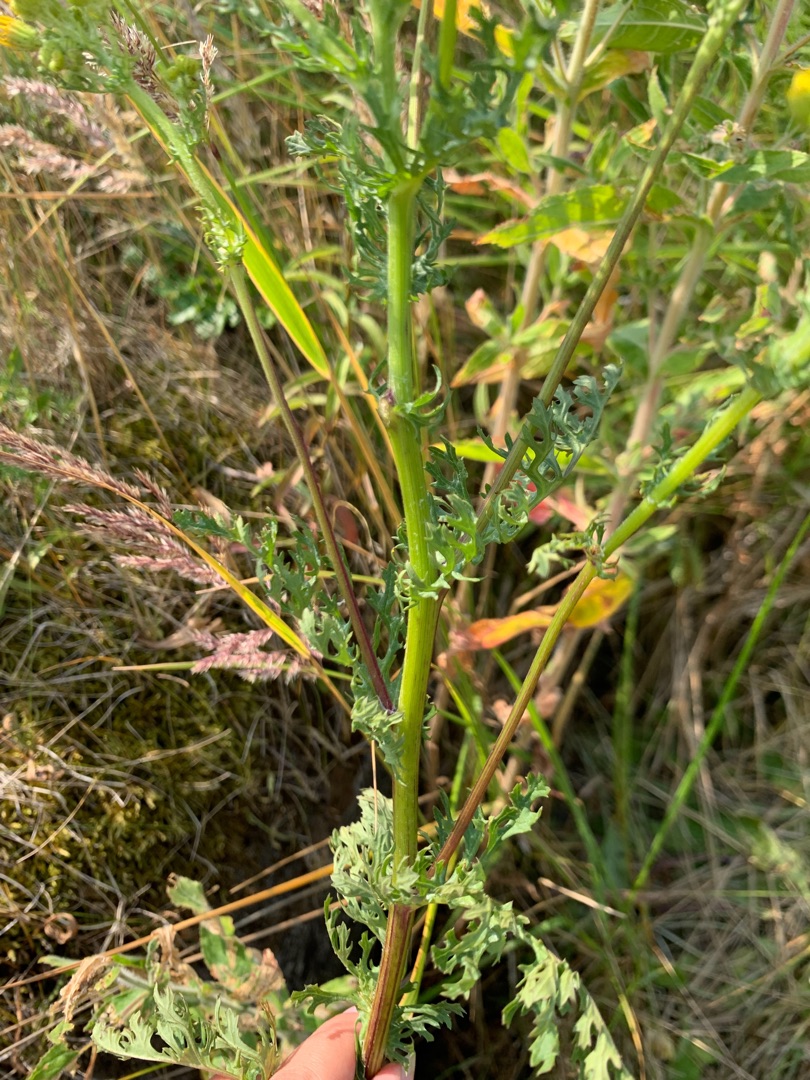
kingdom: Plantae
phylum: Tracheophyta
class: Magnoliopsida
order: Asterales
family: Asteraceae
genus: Jacobaea
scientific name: Jacobaea vulgaris
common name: Eng-brandbæger
